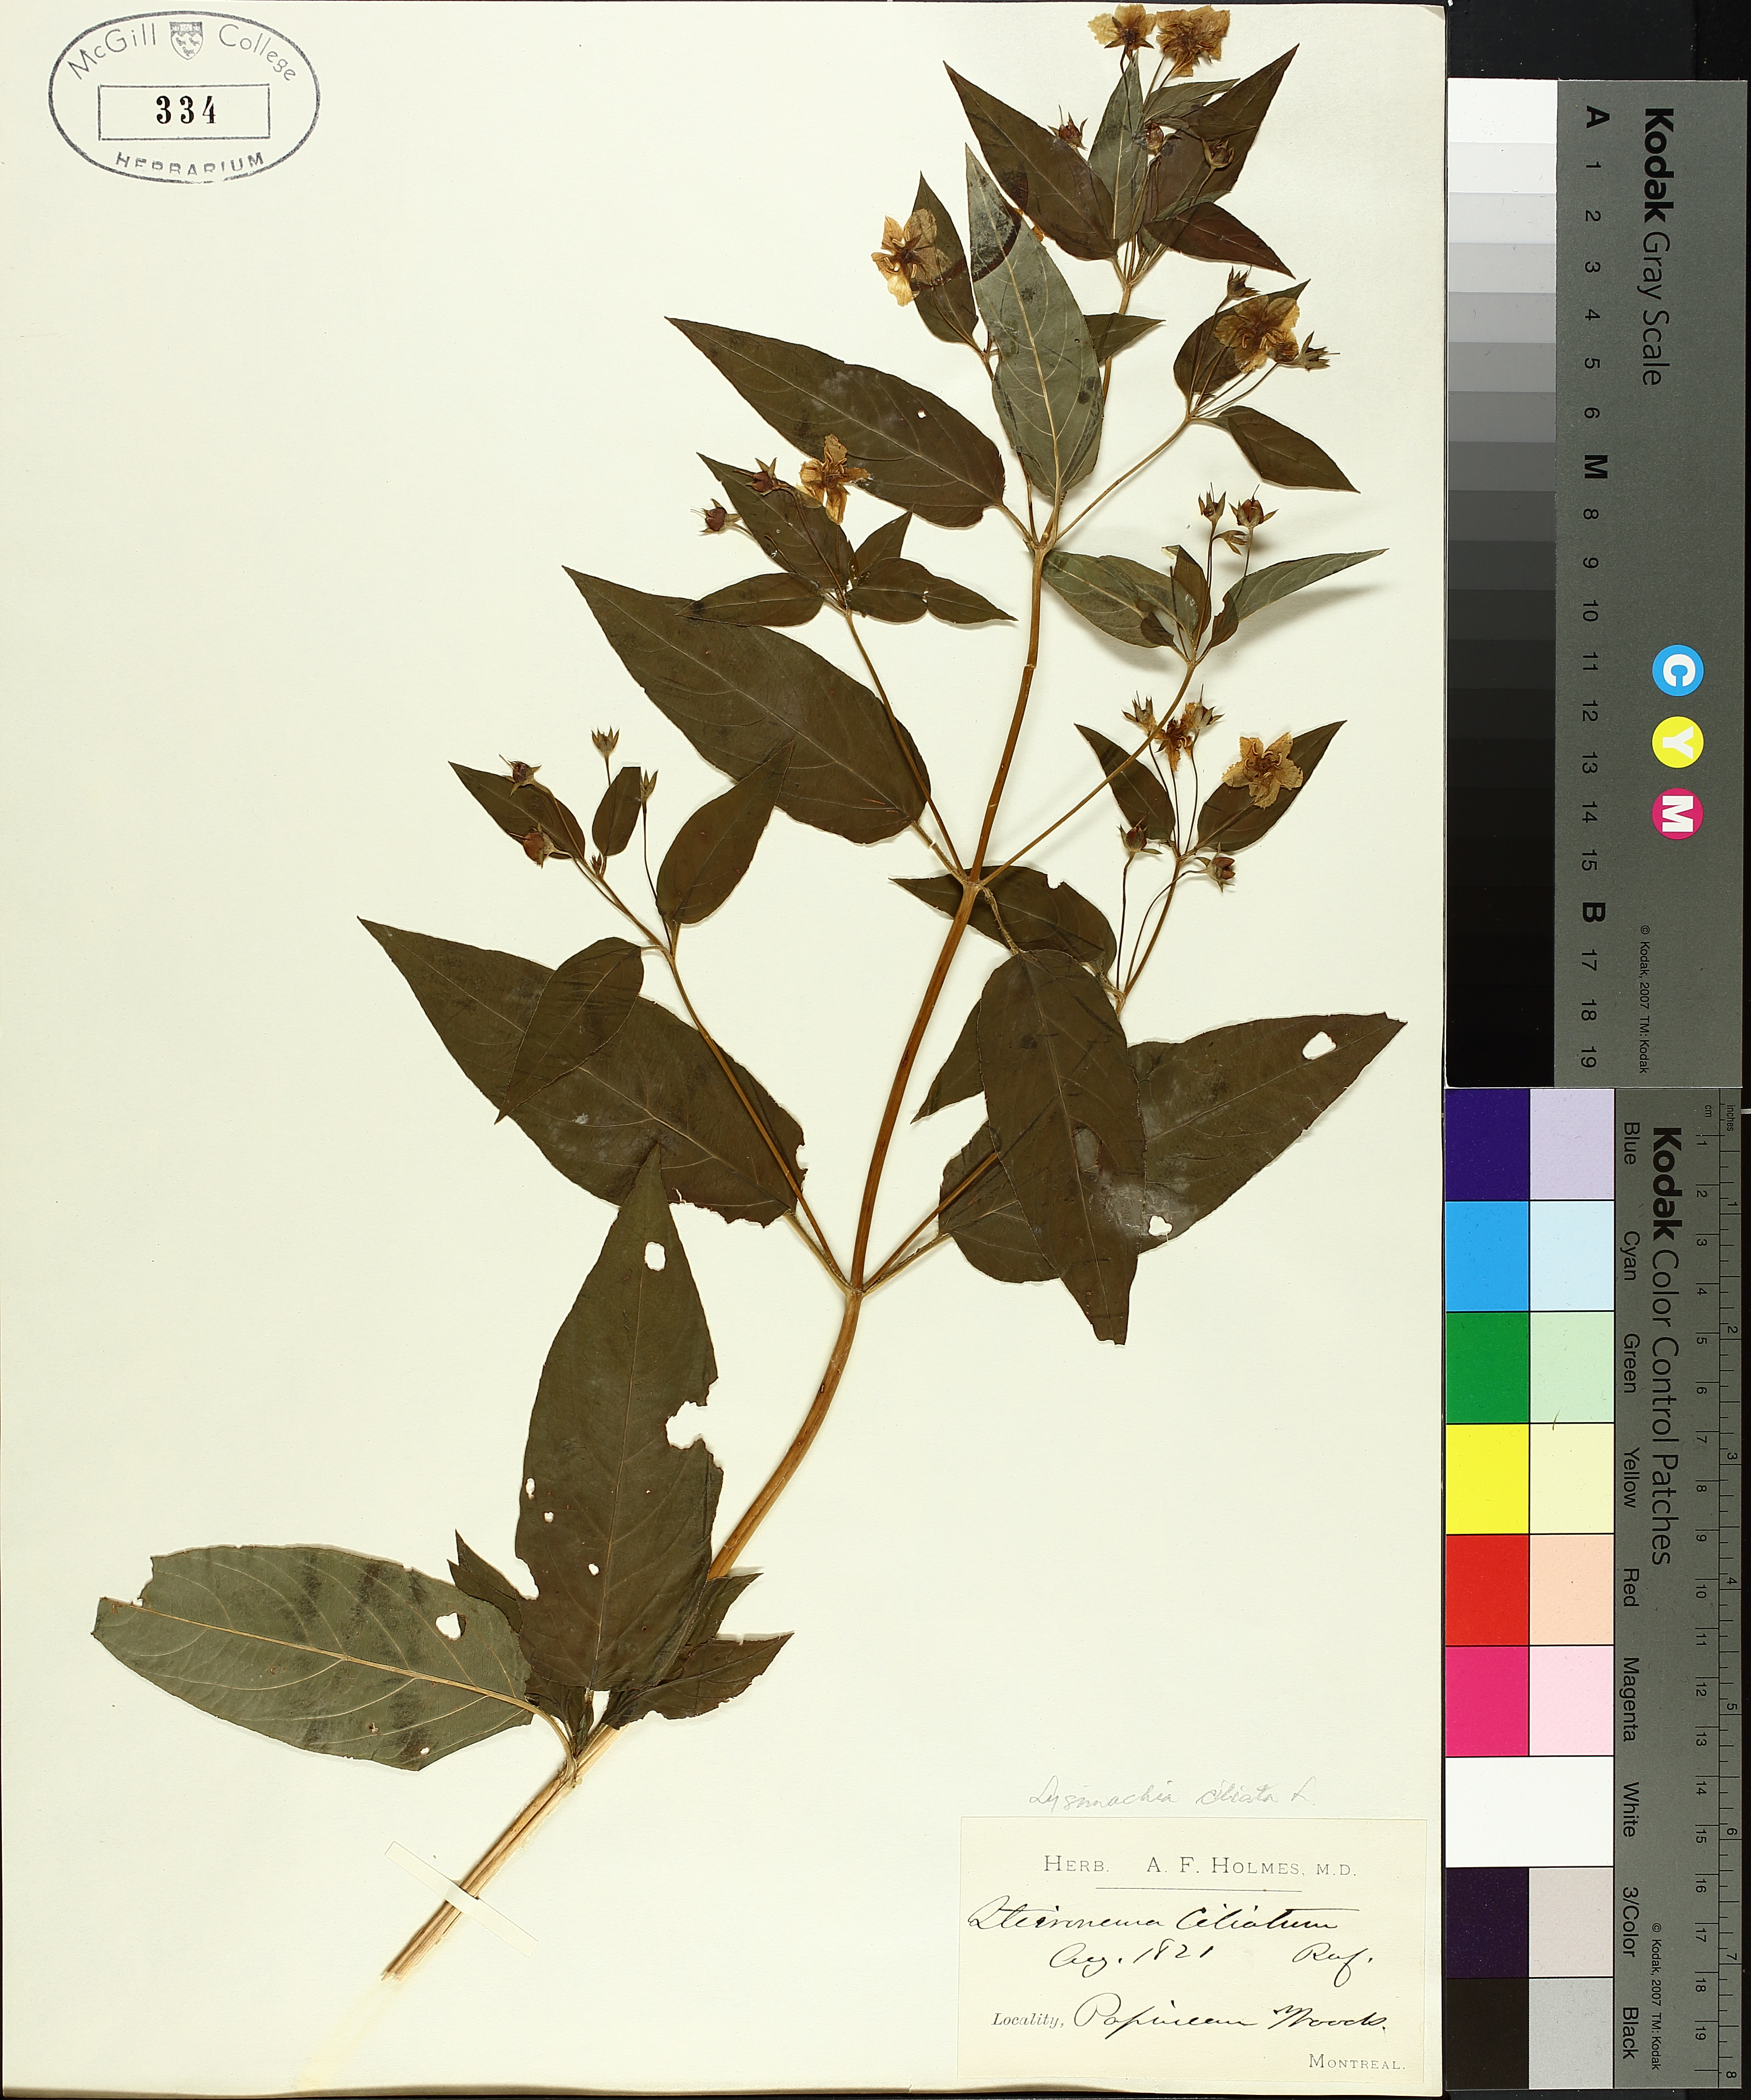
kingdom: Plantae
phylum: Tracheophyta
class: Magnoliopsida
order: Ericales
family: Primulaceae
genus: Lysimachia
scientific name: Lysimachia ciliata
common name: Fringed loosestrife
